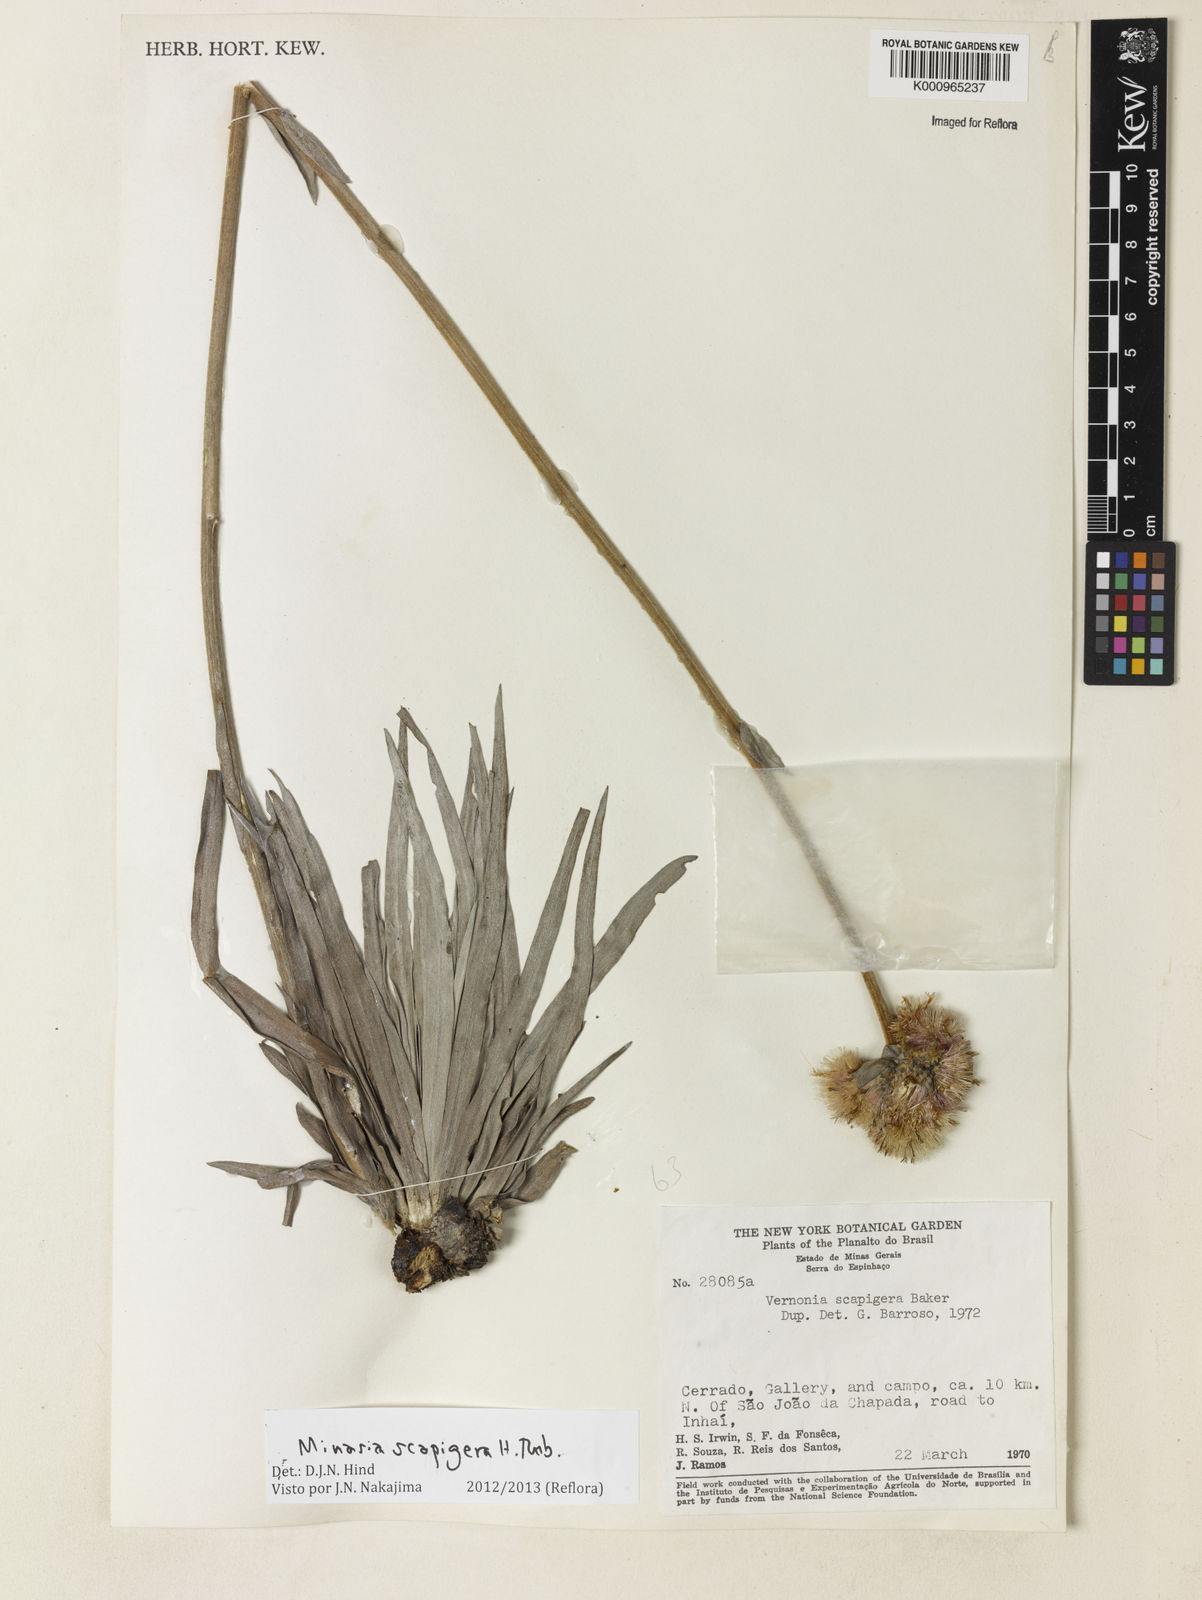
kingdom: Plantae
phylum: Tracheophyta
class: Magnoliopsida
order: Asterales
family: Asteraceae
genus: Minasia
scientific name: Minasia scapigera
